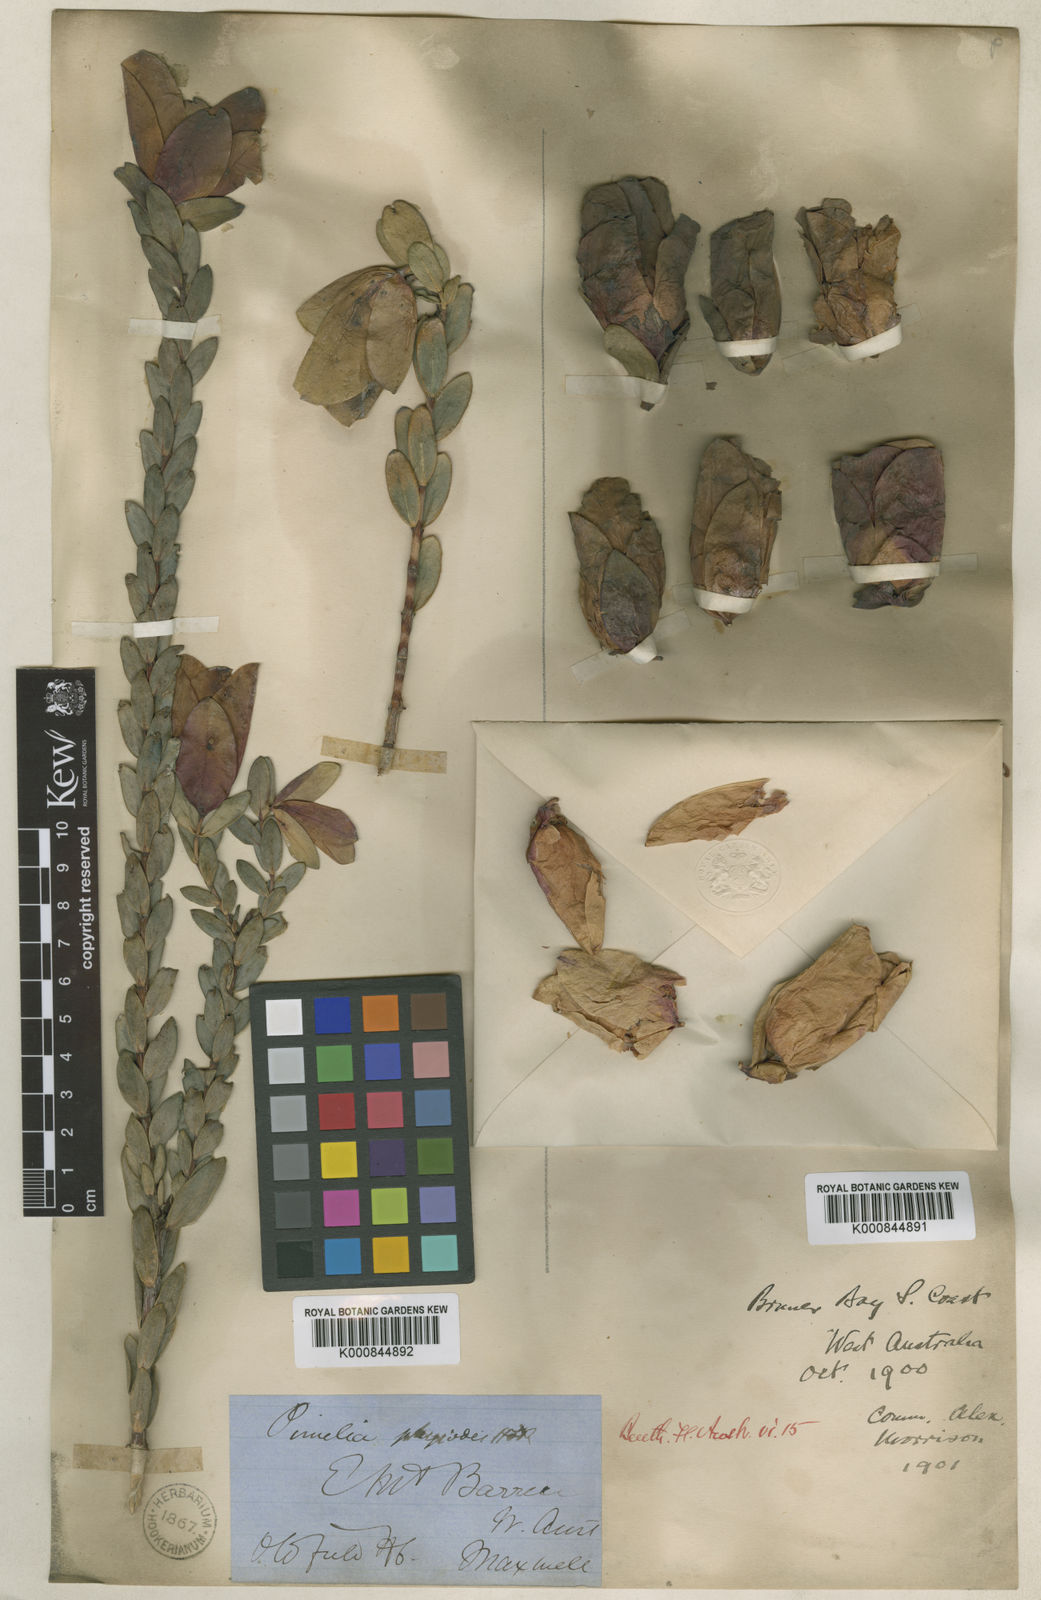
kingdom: Plantae
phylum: Tracheophyta
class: Magnoliopsida
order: Malvales
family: Thymelaeaceae
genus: Pimelea
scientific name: Pimelea physodes
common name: Qualup-bell
